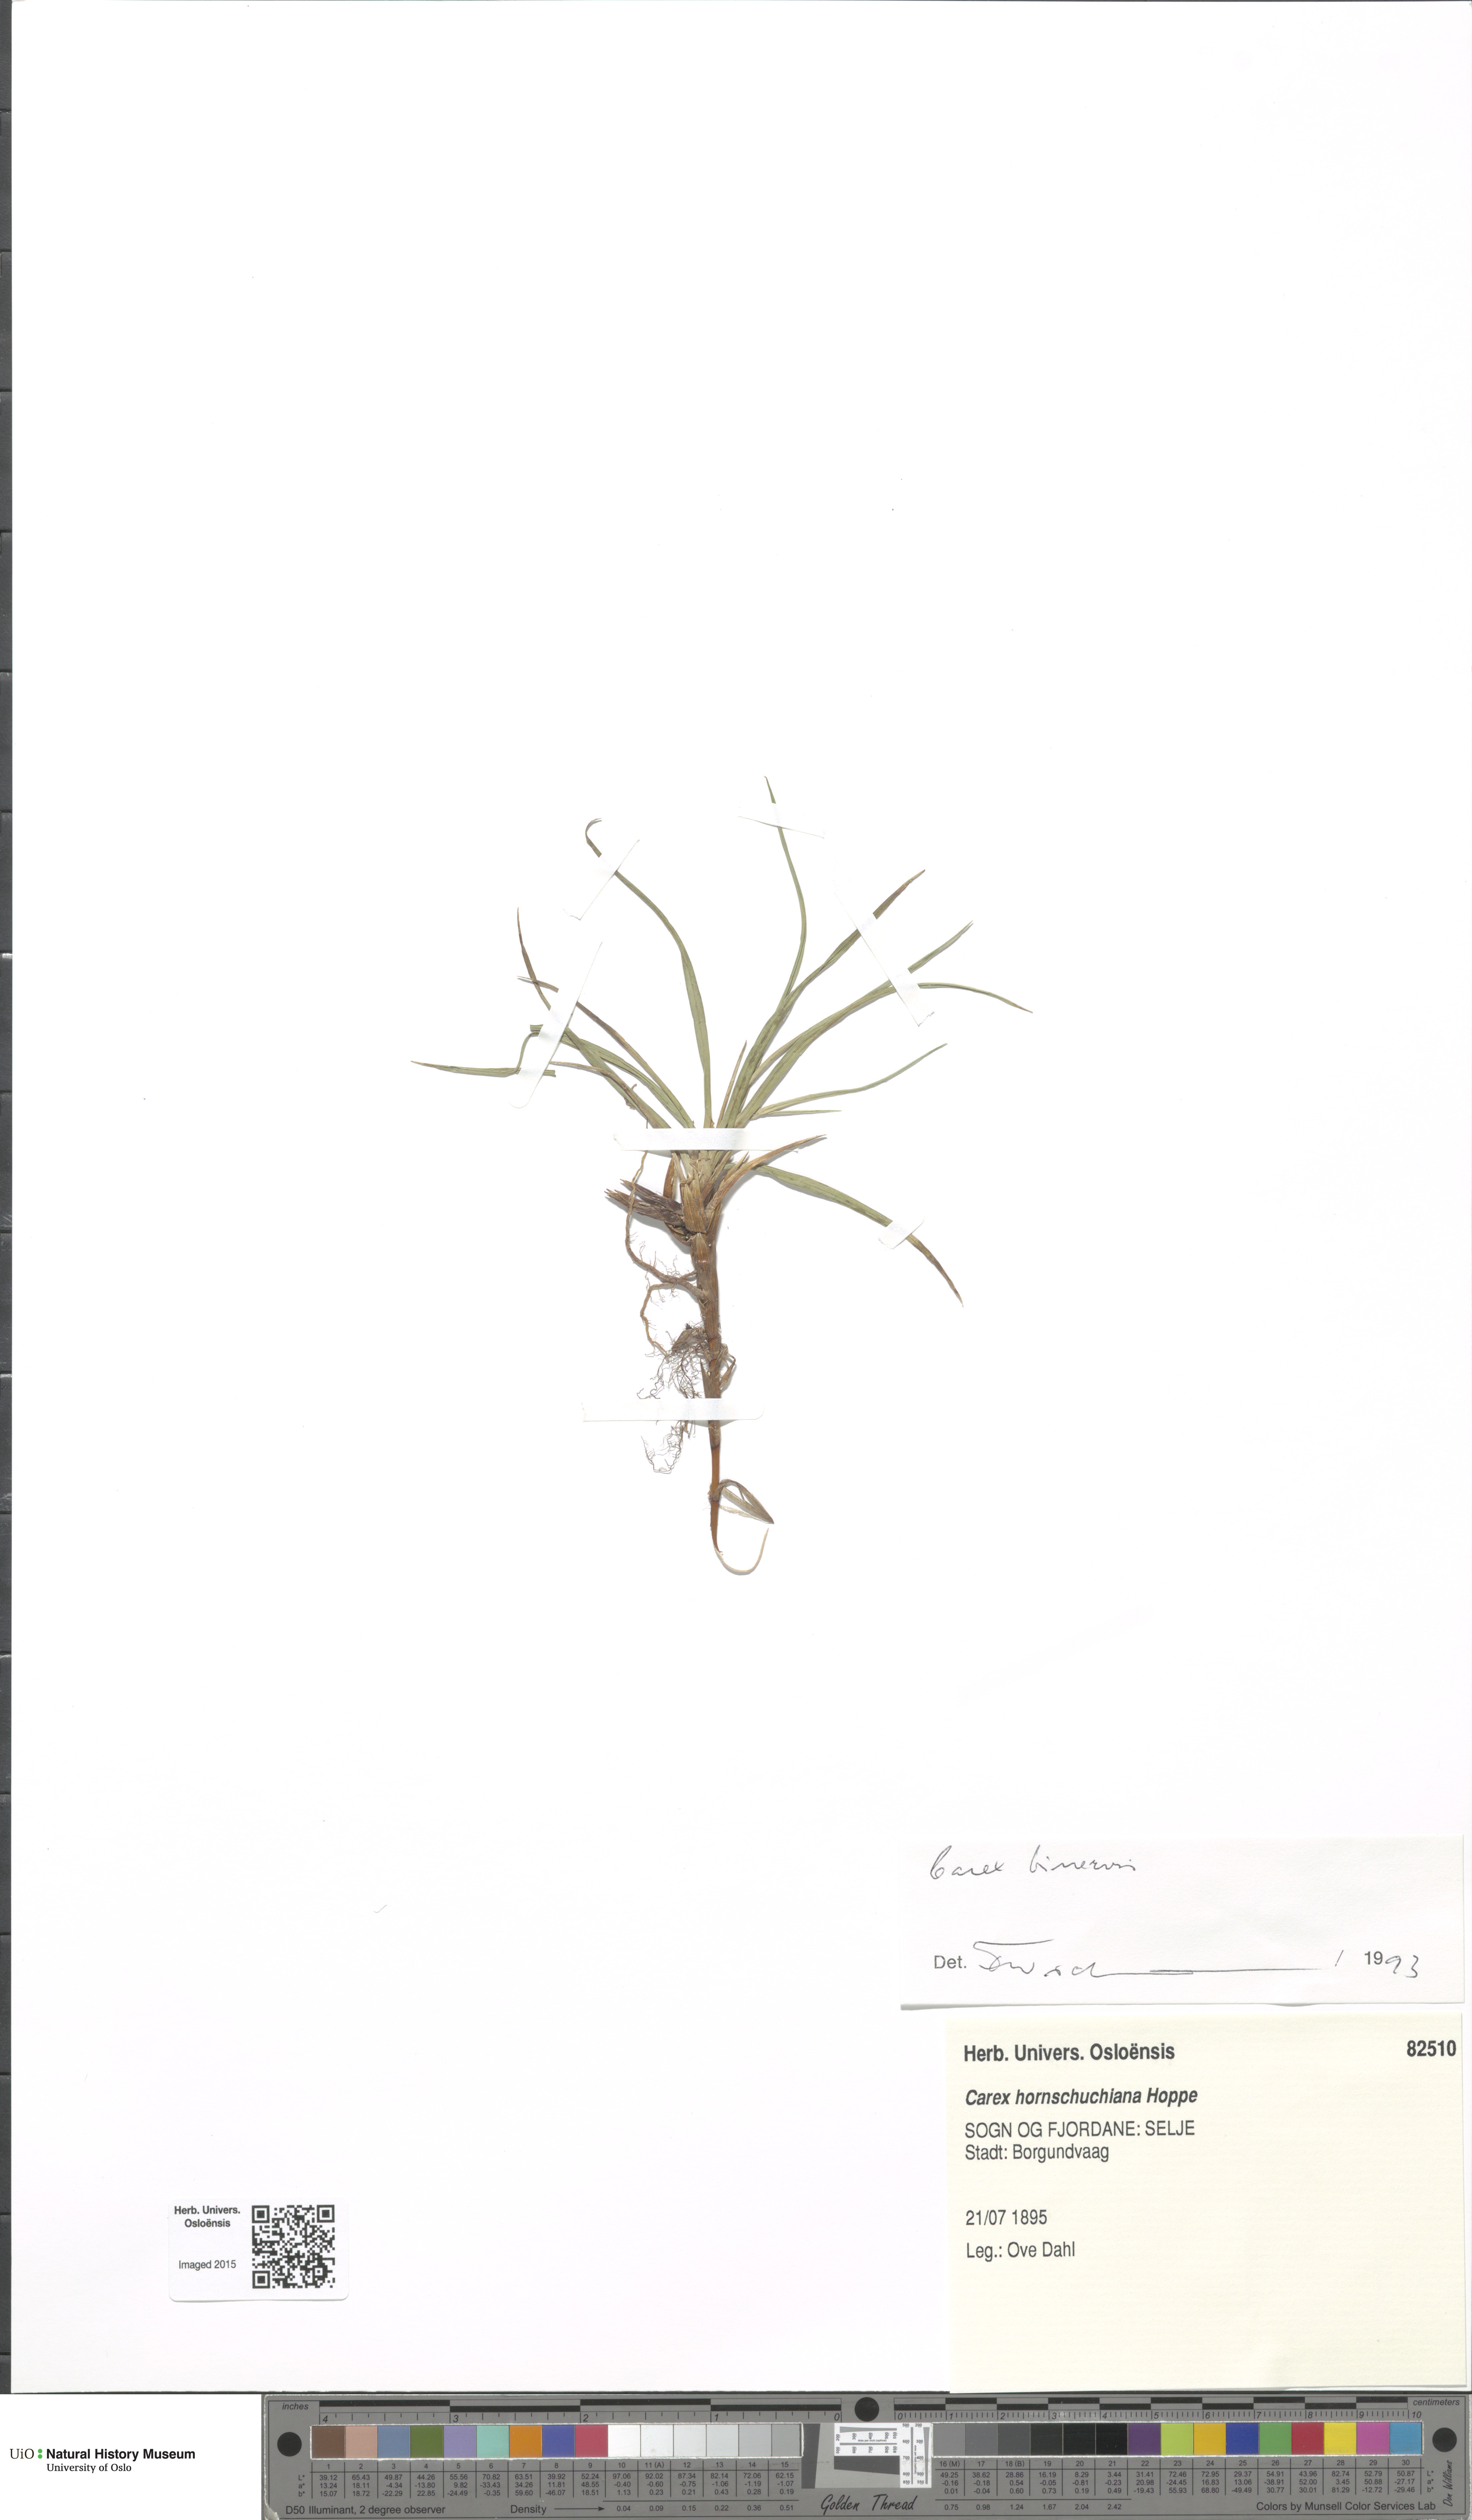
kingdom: Plantae
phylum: Tracheophyta
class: Liliopsida
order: Poales
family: Cyperaceae
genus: Carex
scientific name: Carex binervis
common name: Green-ribbed sedge
